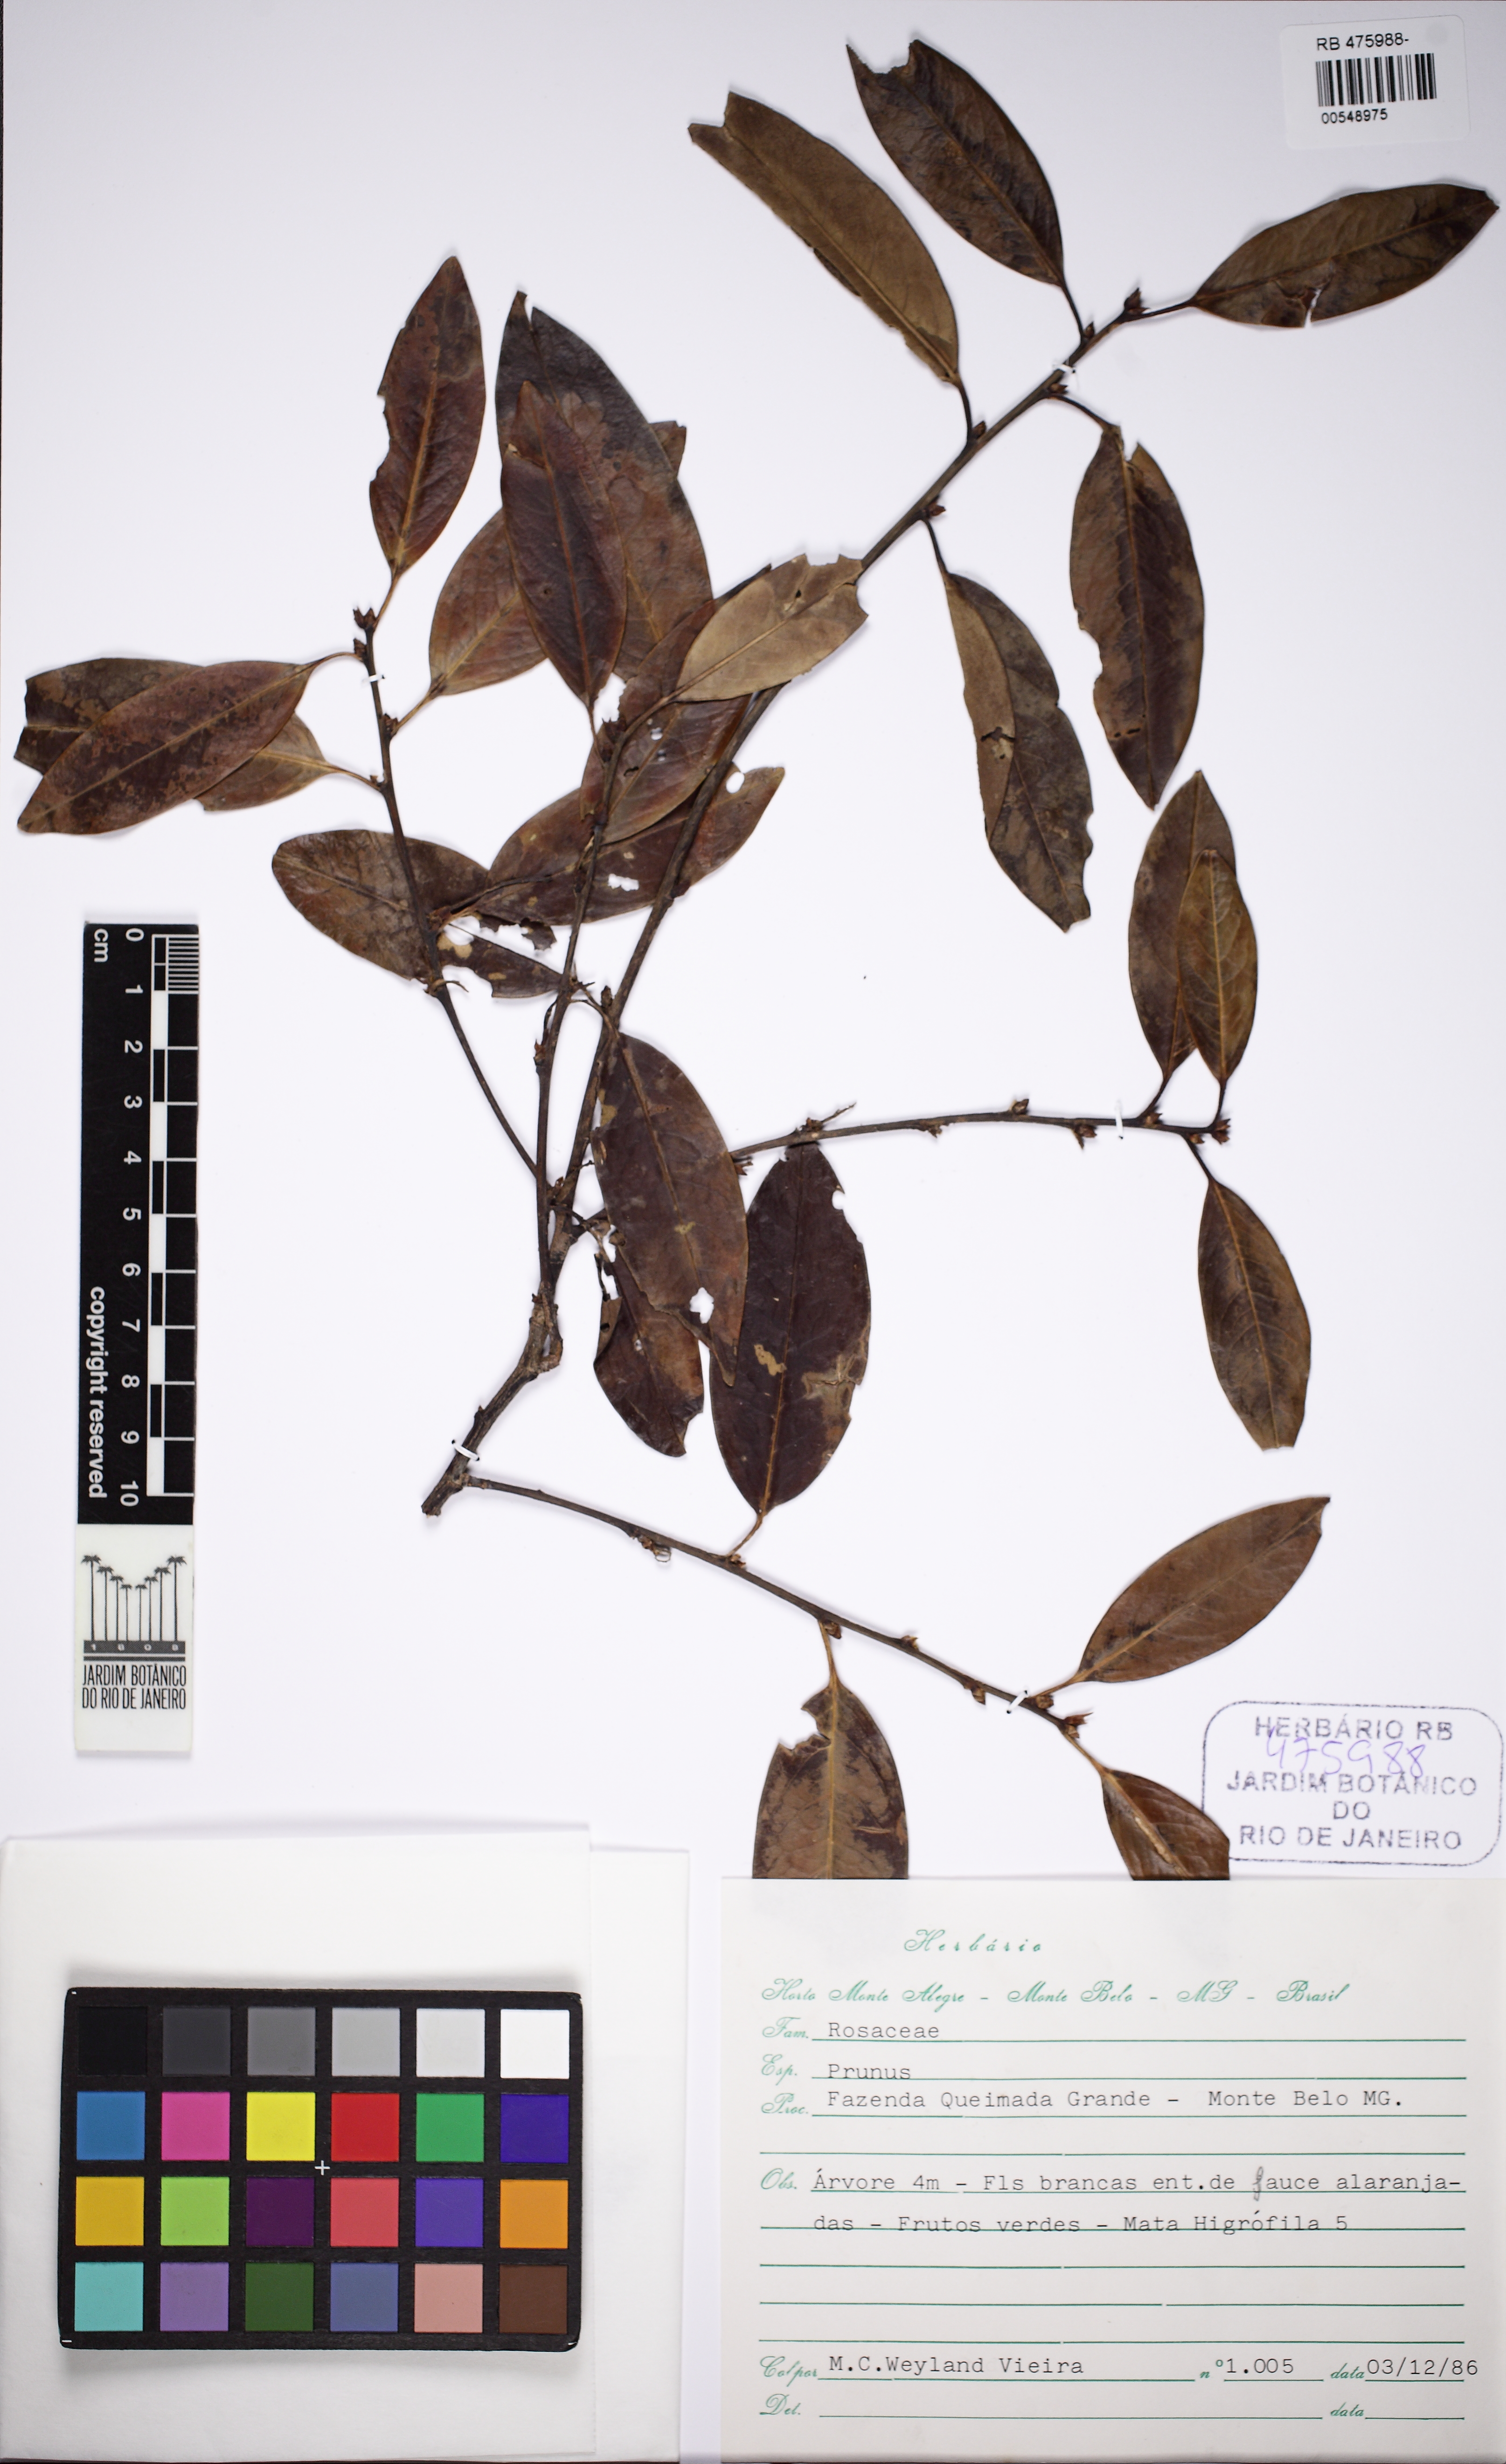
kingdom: Plantae
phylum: Tracheophyta
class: Magnoliopsida
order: Rosales
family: Rosaceae
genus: Prunus
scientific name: Prunus
